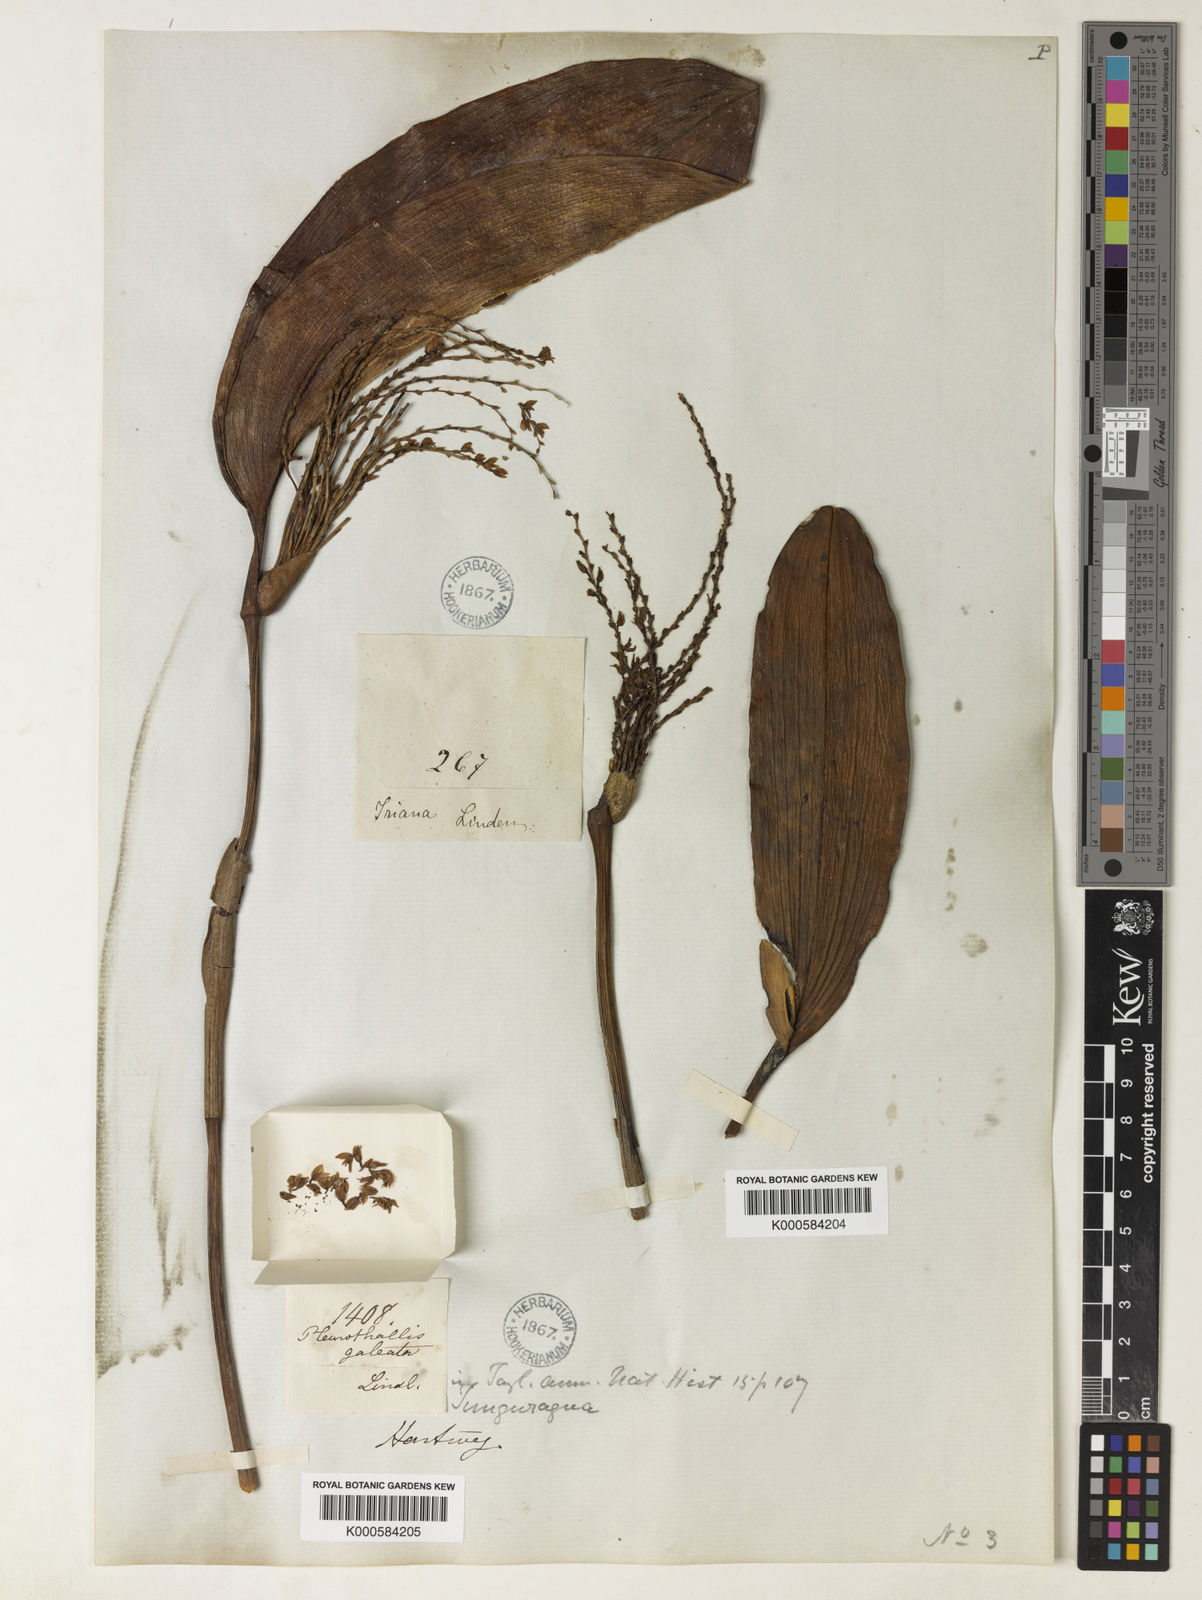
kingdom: Plantae
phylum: Tracheophyta
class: Liliopsida
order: Asparagales
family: Orchidaceae
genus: Stelis
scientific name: Stelis galeata
